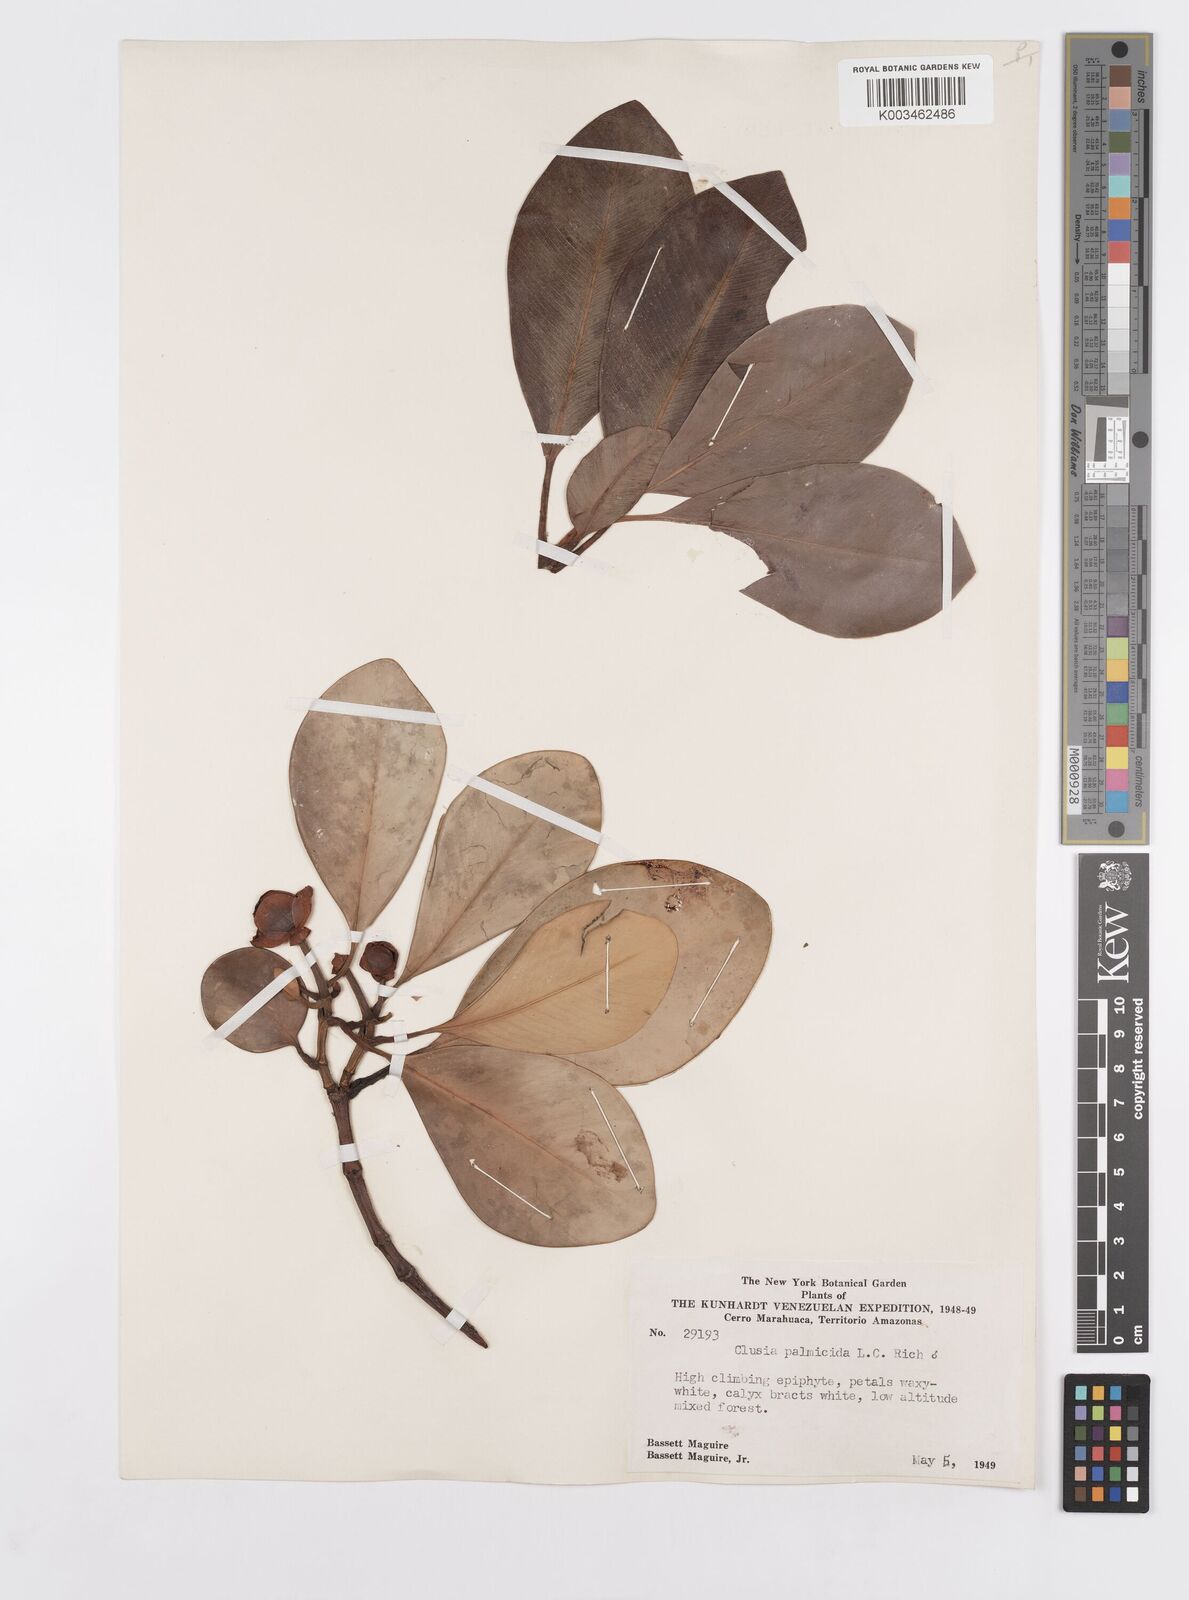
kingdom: Plantae
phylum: Tracheophyta
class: Magnoliopsida
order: Malpighiales
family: Clusiaceae
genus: Clusia
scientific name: Clusia palmicida
